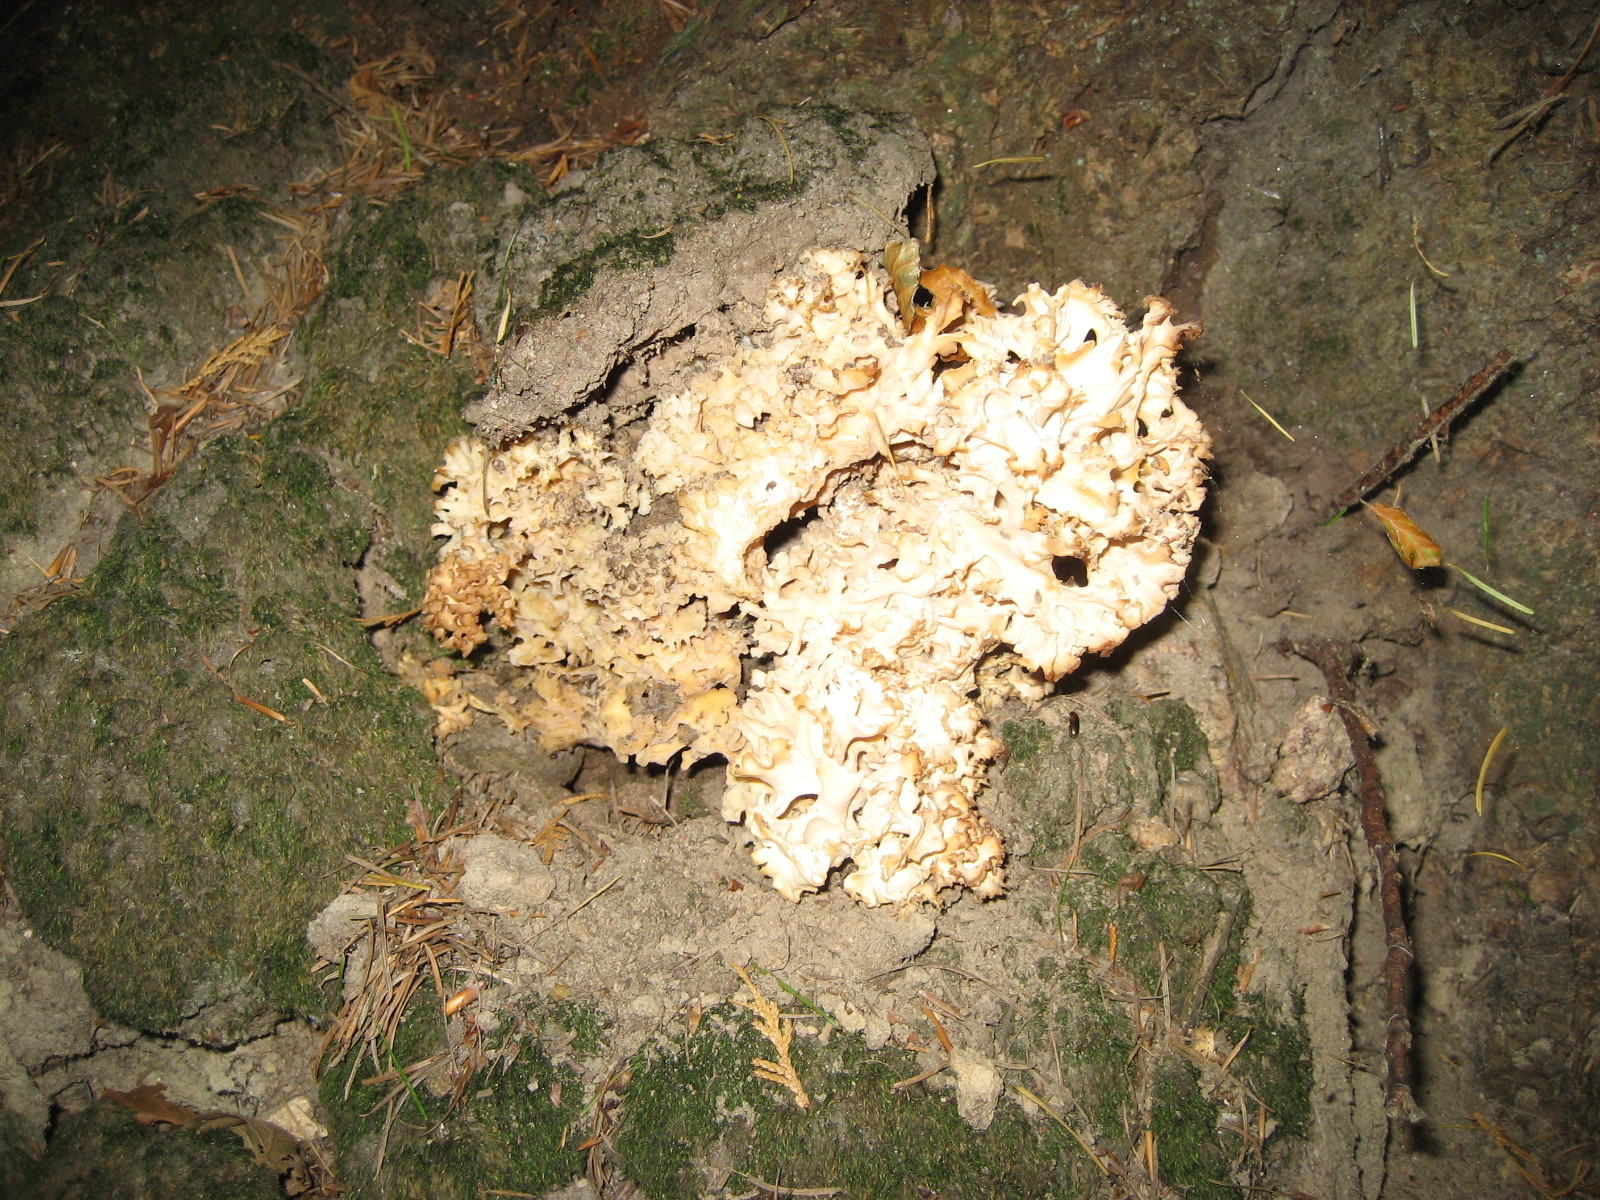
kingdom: Fungi
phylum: Basidiomycota
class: Agaricomycetes
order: Polyporales
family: Sparassidaceae
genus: Sparassis
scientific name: Sparassis crispa
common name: kruset blomkålssvamp
